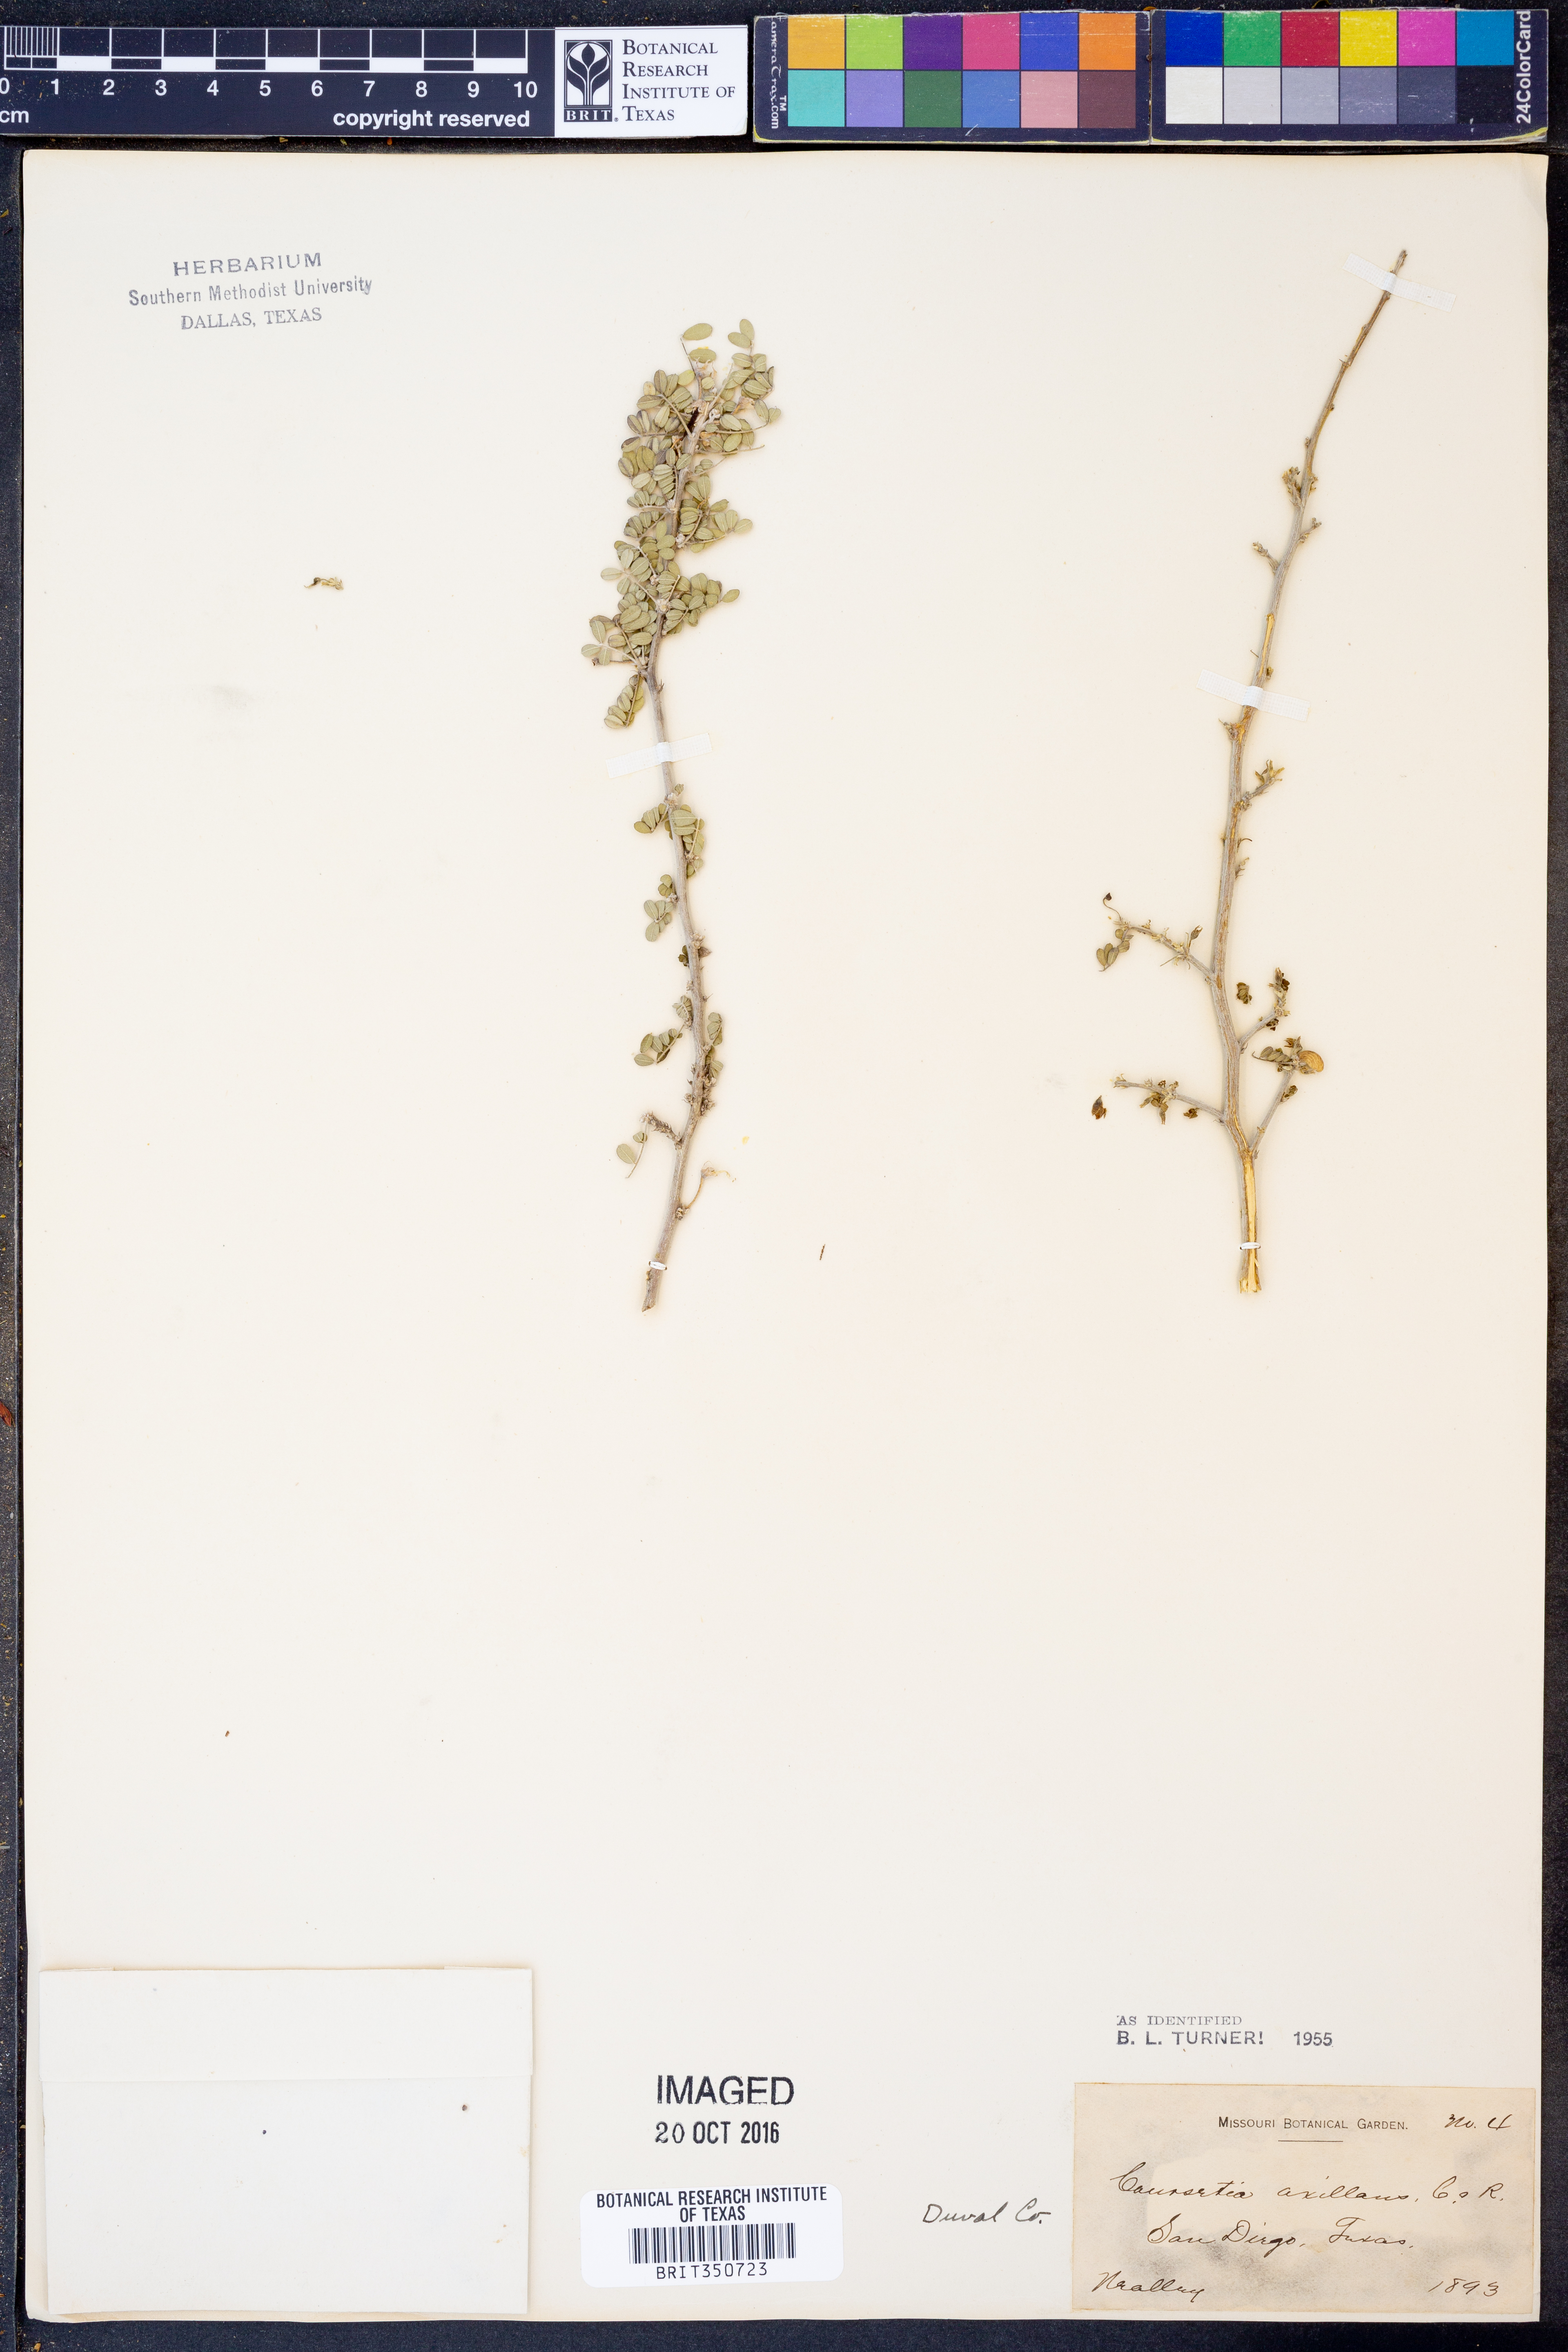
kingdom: Plantae
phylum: Tracheophyta
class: Magnoliopsida
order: Fabales
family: Fabaceae
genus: Coursetia
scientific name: Coursetia axillaris
